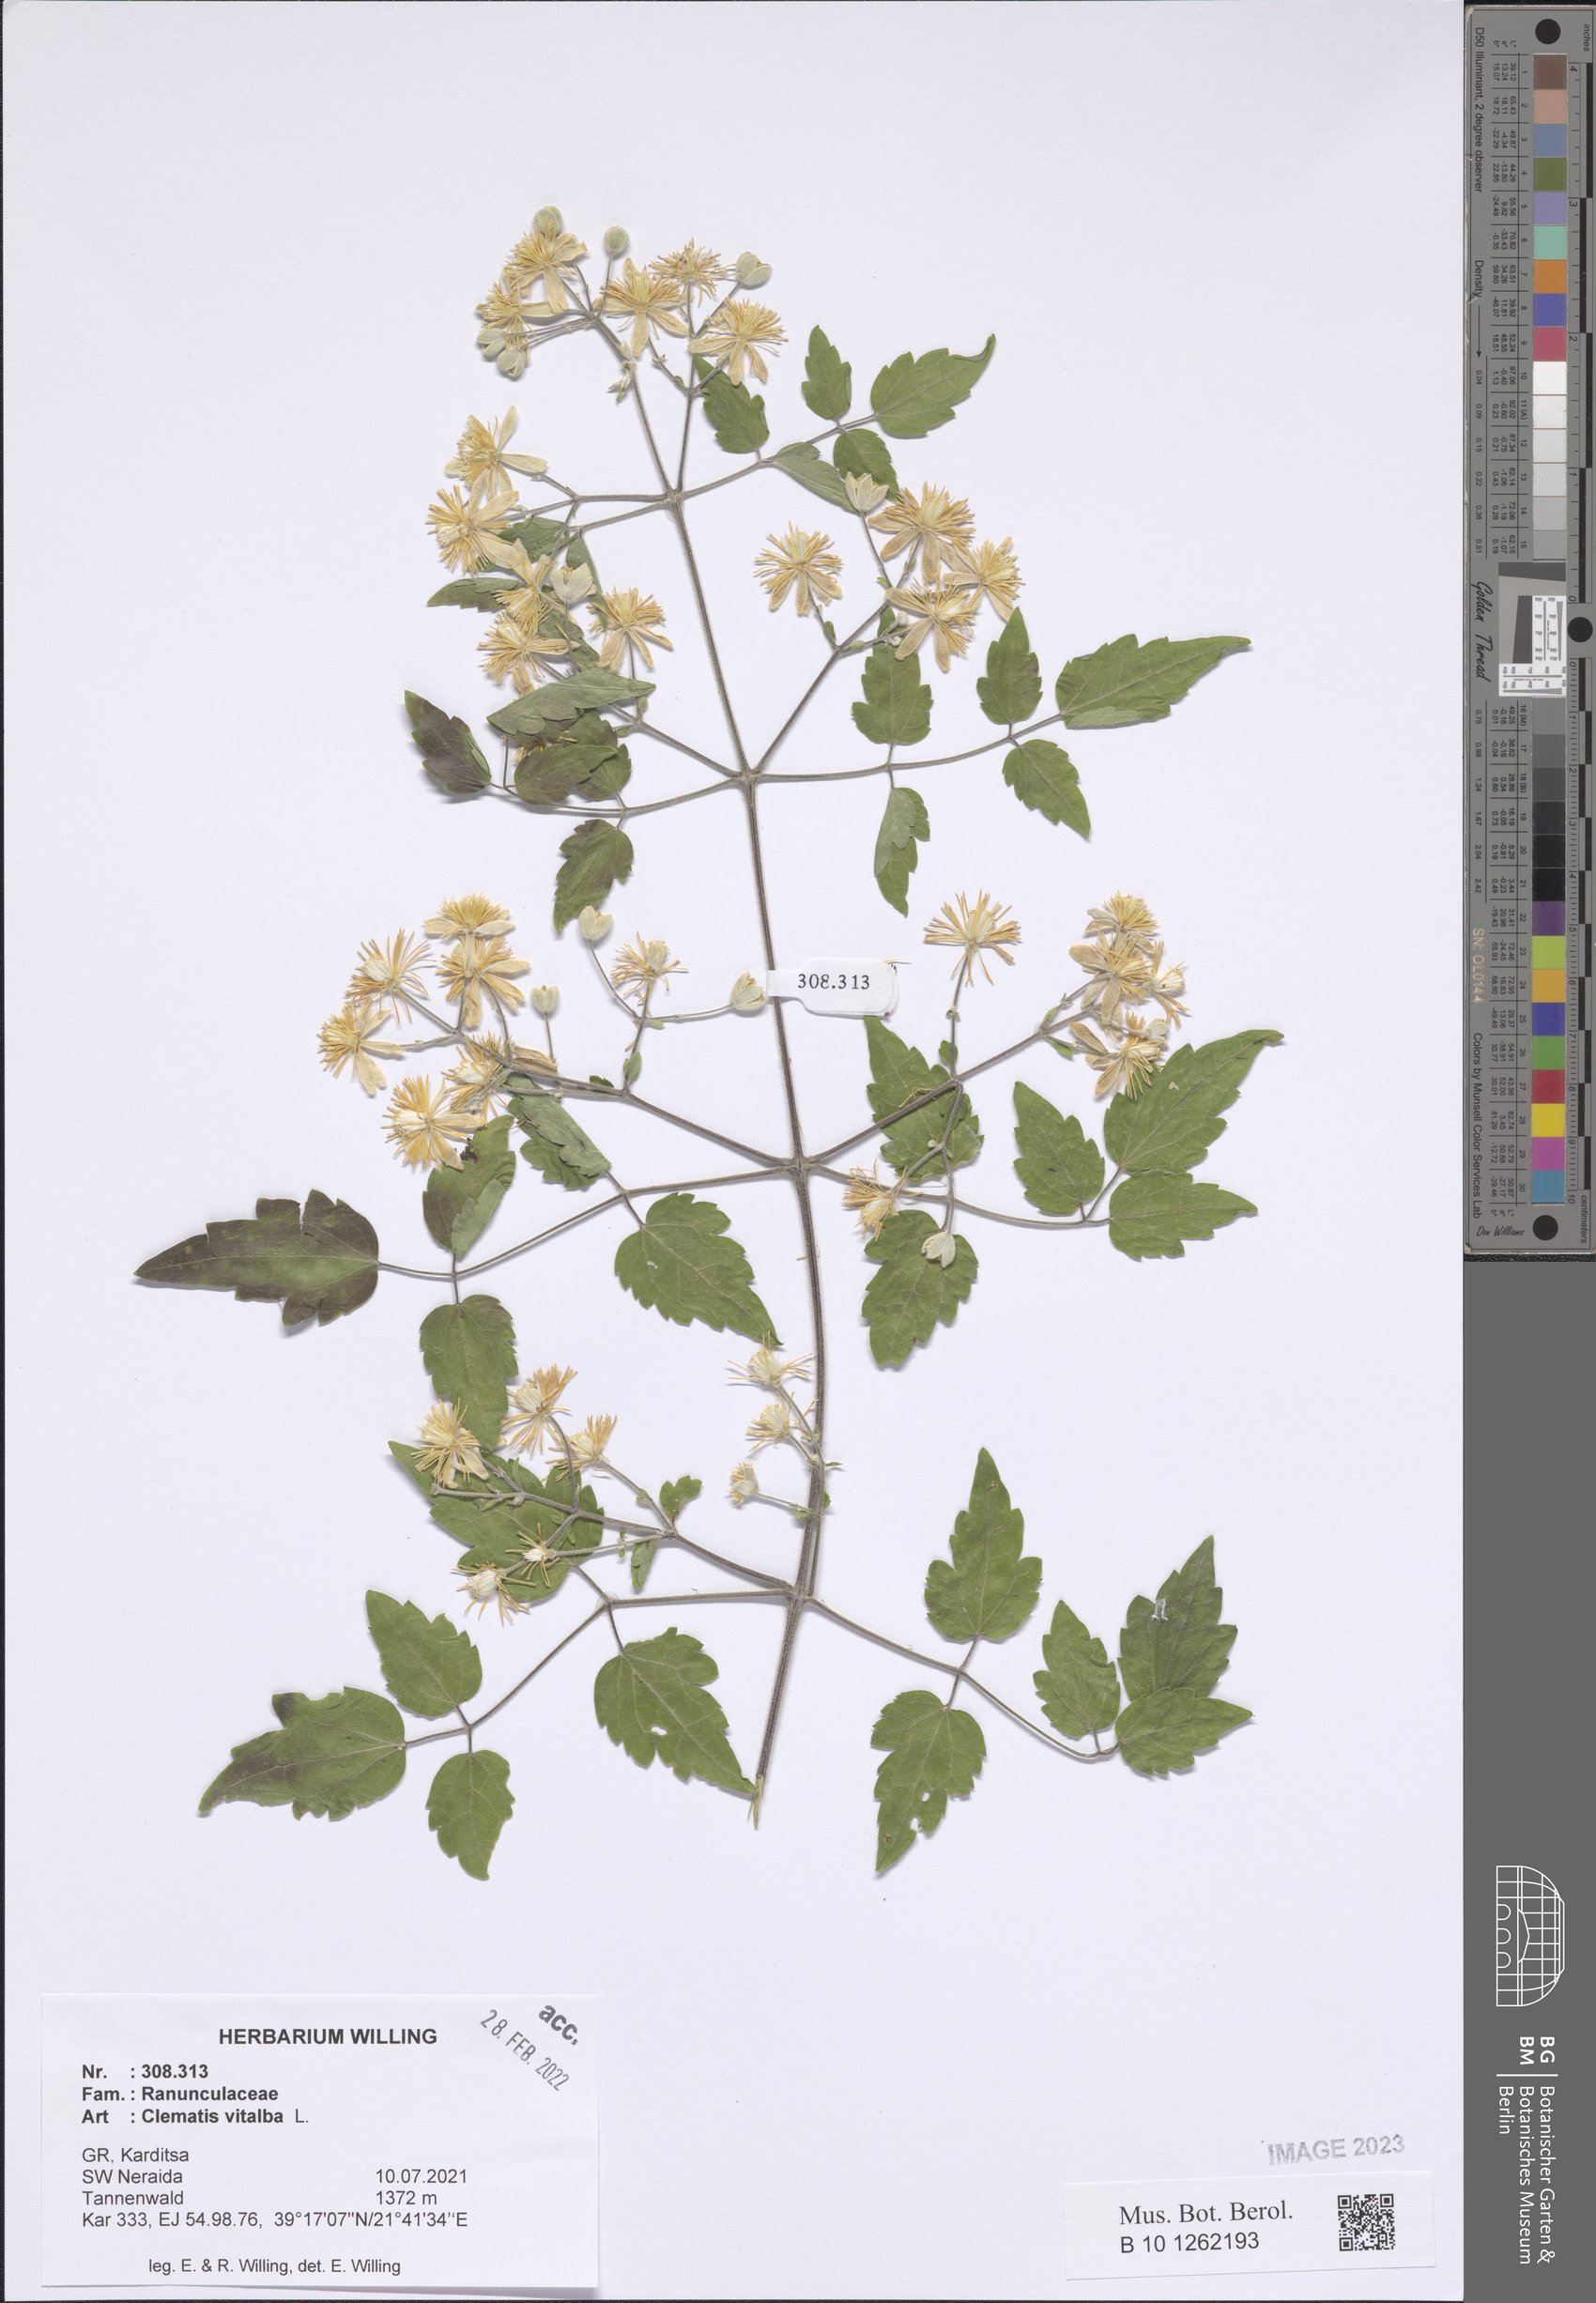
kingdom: Plantae
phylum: Tracheophyta
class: Magnoliopsida
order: Ranunculales
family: Ranunculaceae
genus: Clematis
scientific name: Clematis vitalba
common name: Evergreen clematis
